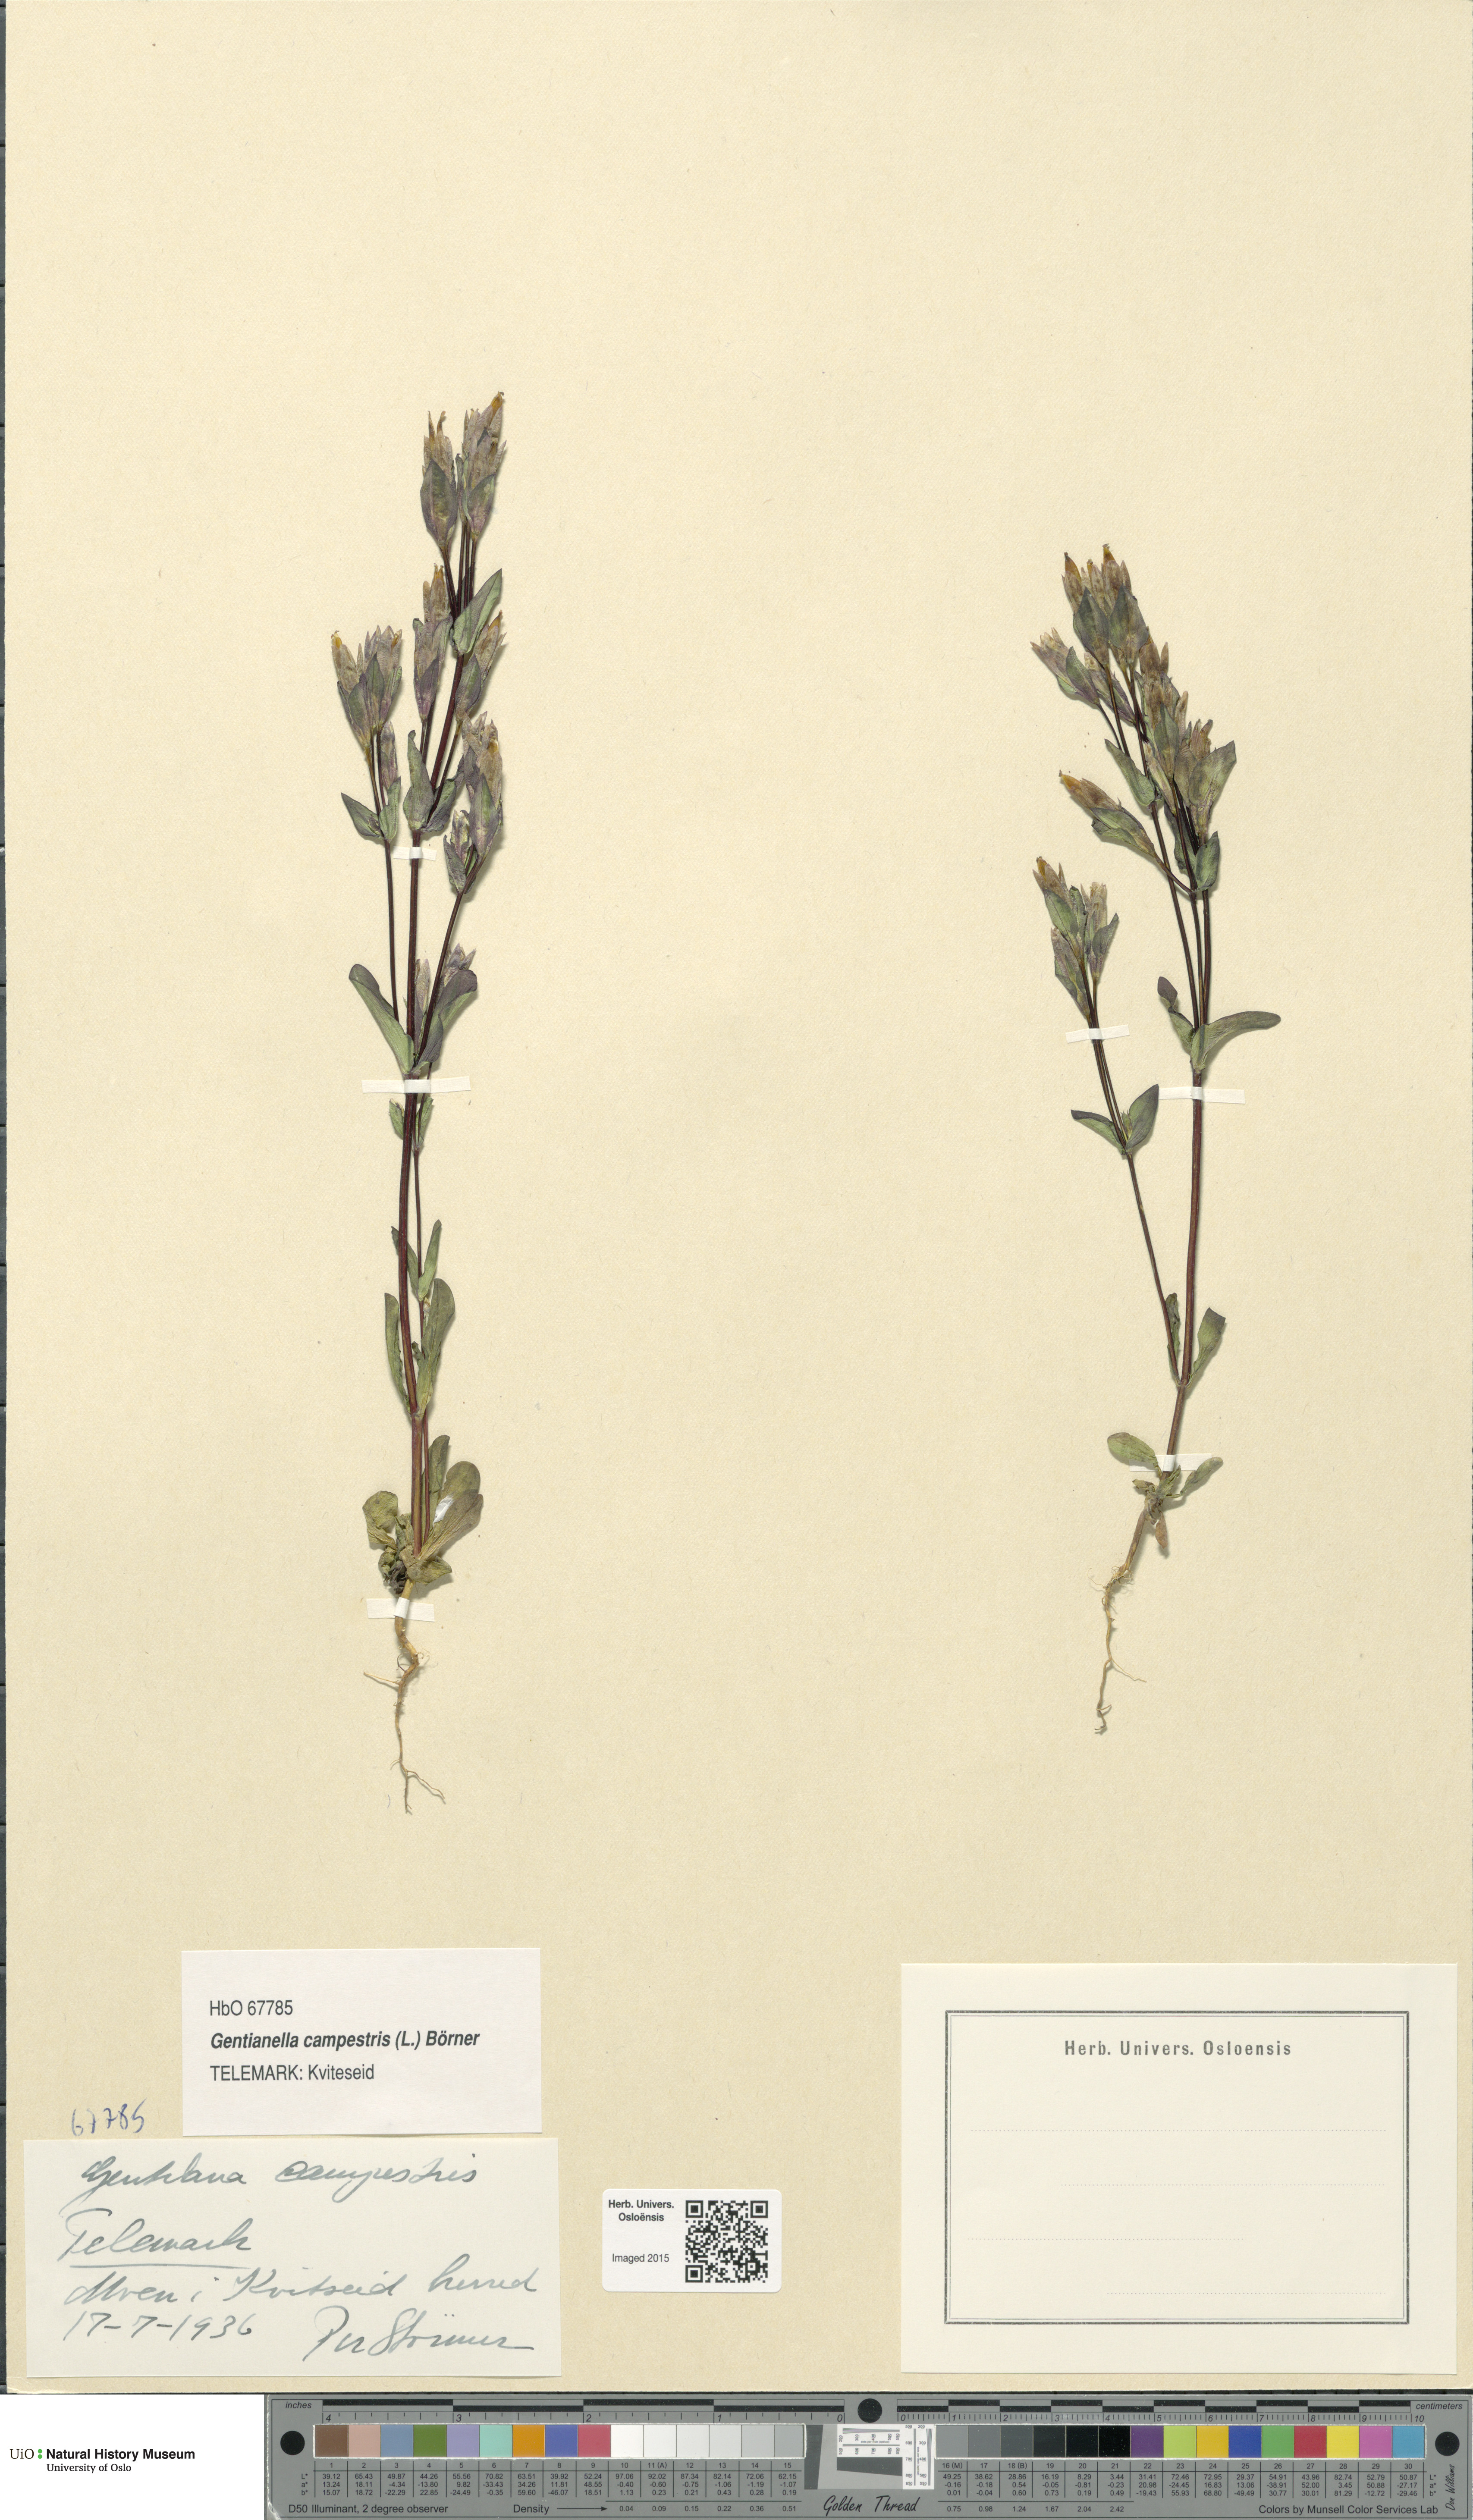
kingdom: Plantae
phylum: Tracheophyta
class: Magnoliopsida
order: Gentianales
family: Gentianaceae
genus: Gentianella
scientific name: Gentianella campestris
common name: Field gentian
